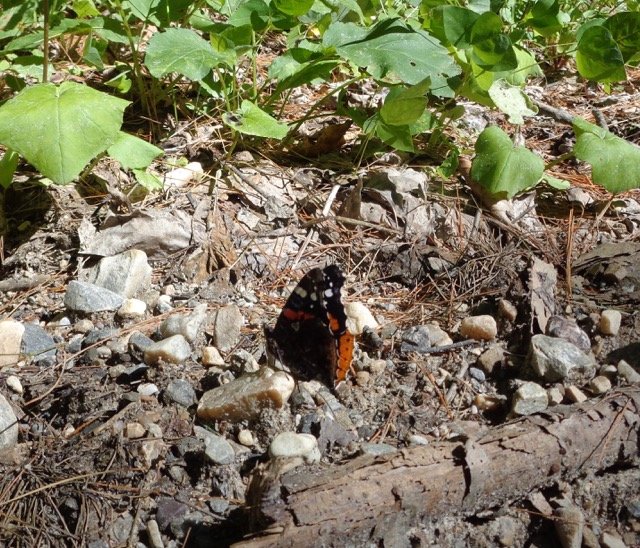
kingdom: Animalia
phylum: Arthropoda
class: Insecta
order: Lepidoptera
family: Nymphalidae
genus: Vanessa
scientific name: Vanessa atalanta
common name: Red Admiral
